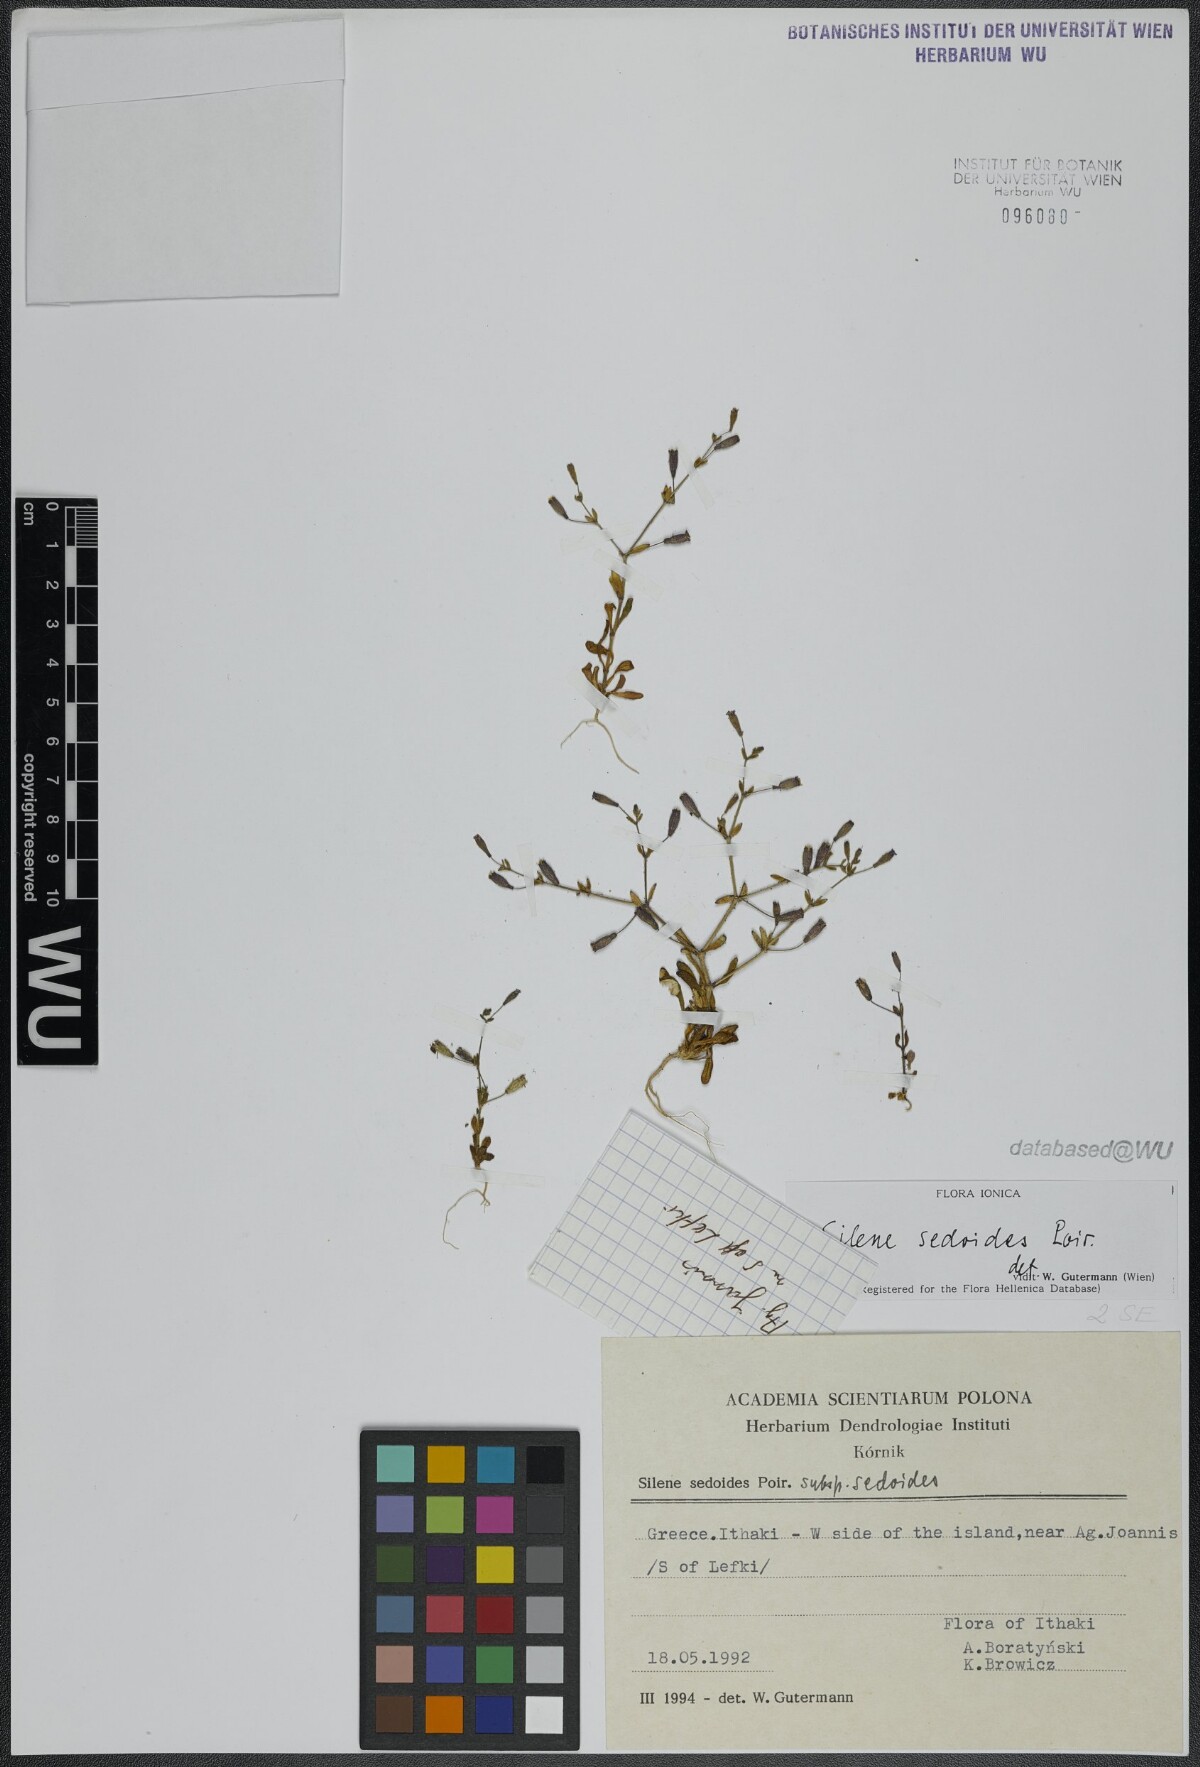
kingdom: Plantae
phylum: Tracheophyta
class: Magnoliopsida
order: Caryophyllales
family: Caryophyllaceae
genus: Silene
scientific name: Silene sedoides
